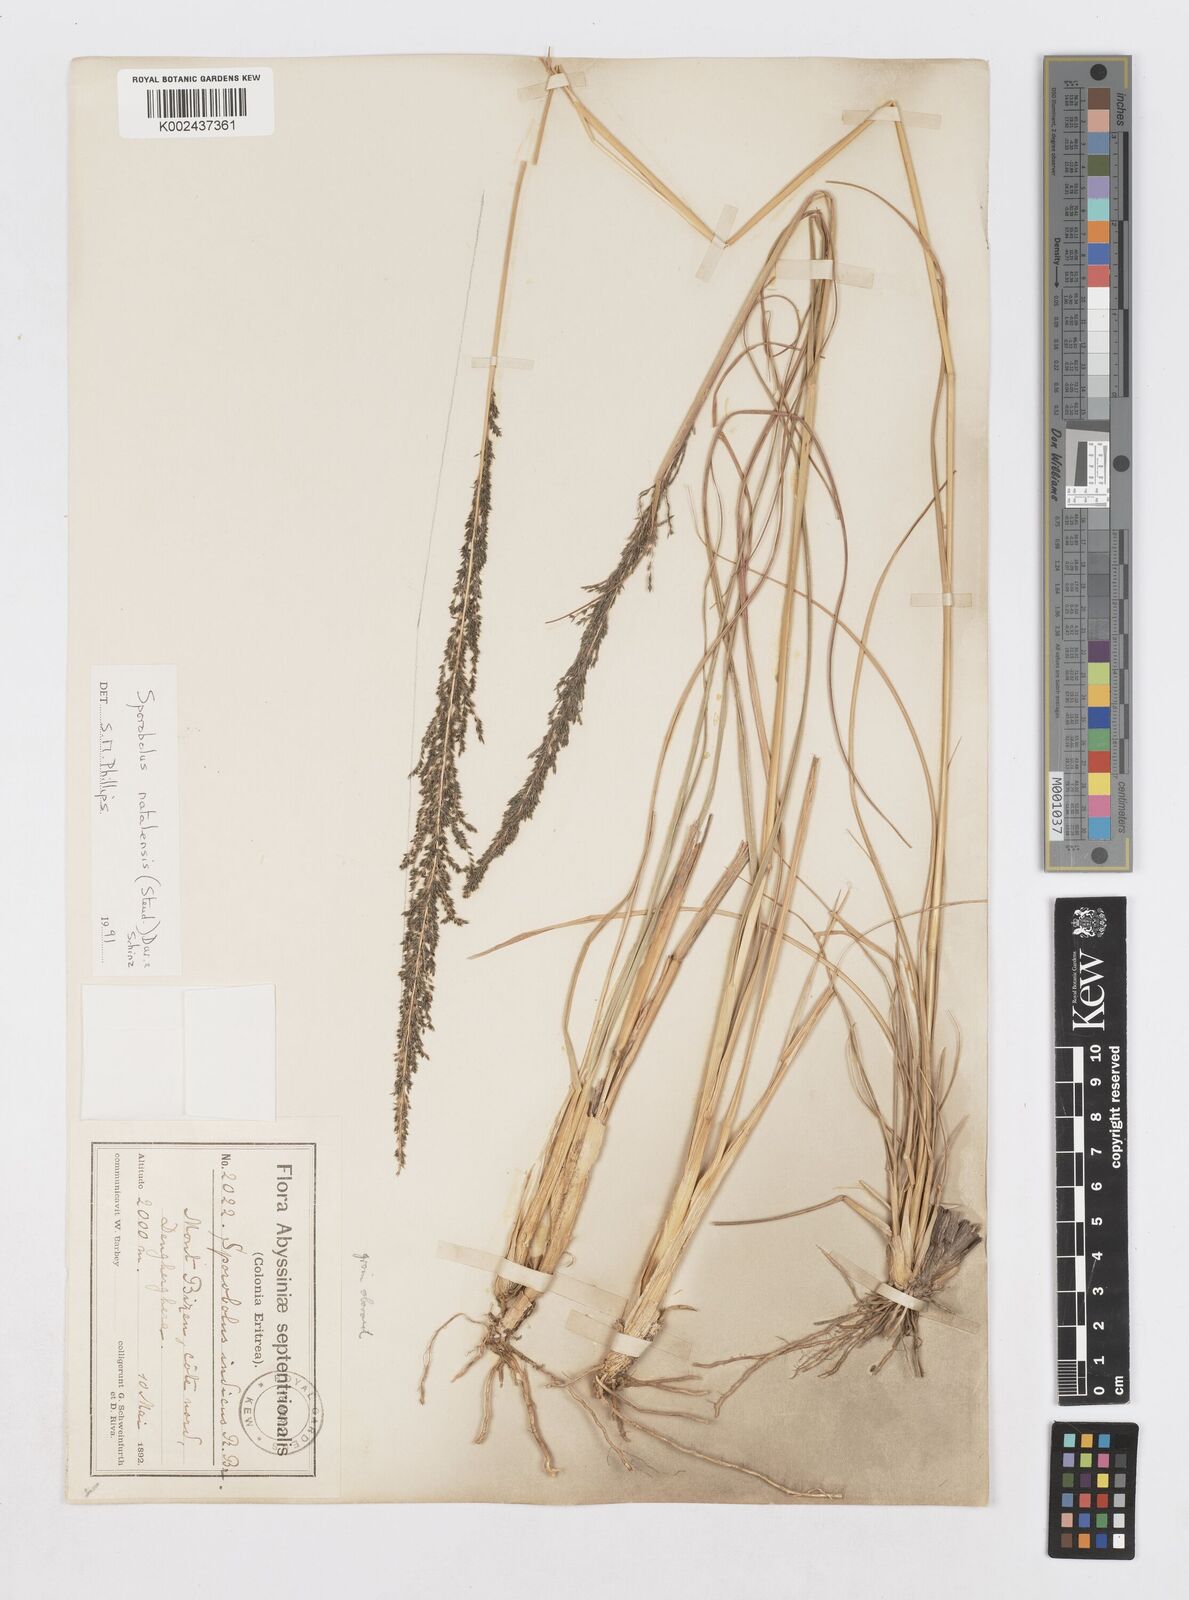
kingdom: Plantae
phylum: Tracheophyta
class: Liliopsida
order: Poales
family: Poaceae
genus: Sporobolus
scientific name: Sporobolus natalensis
